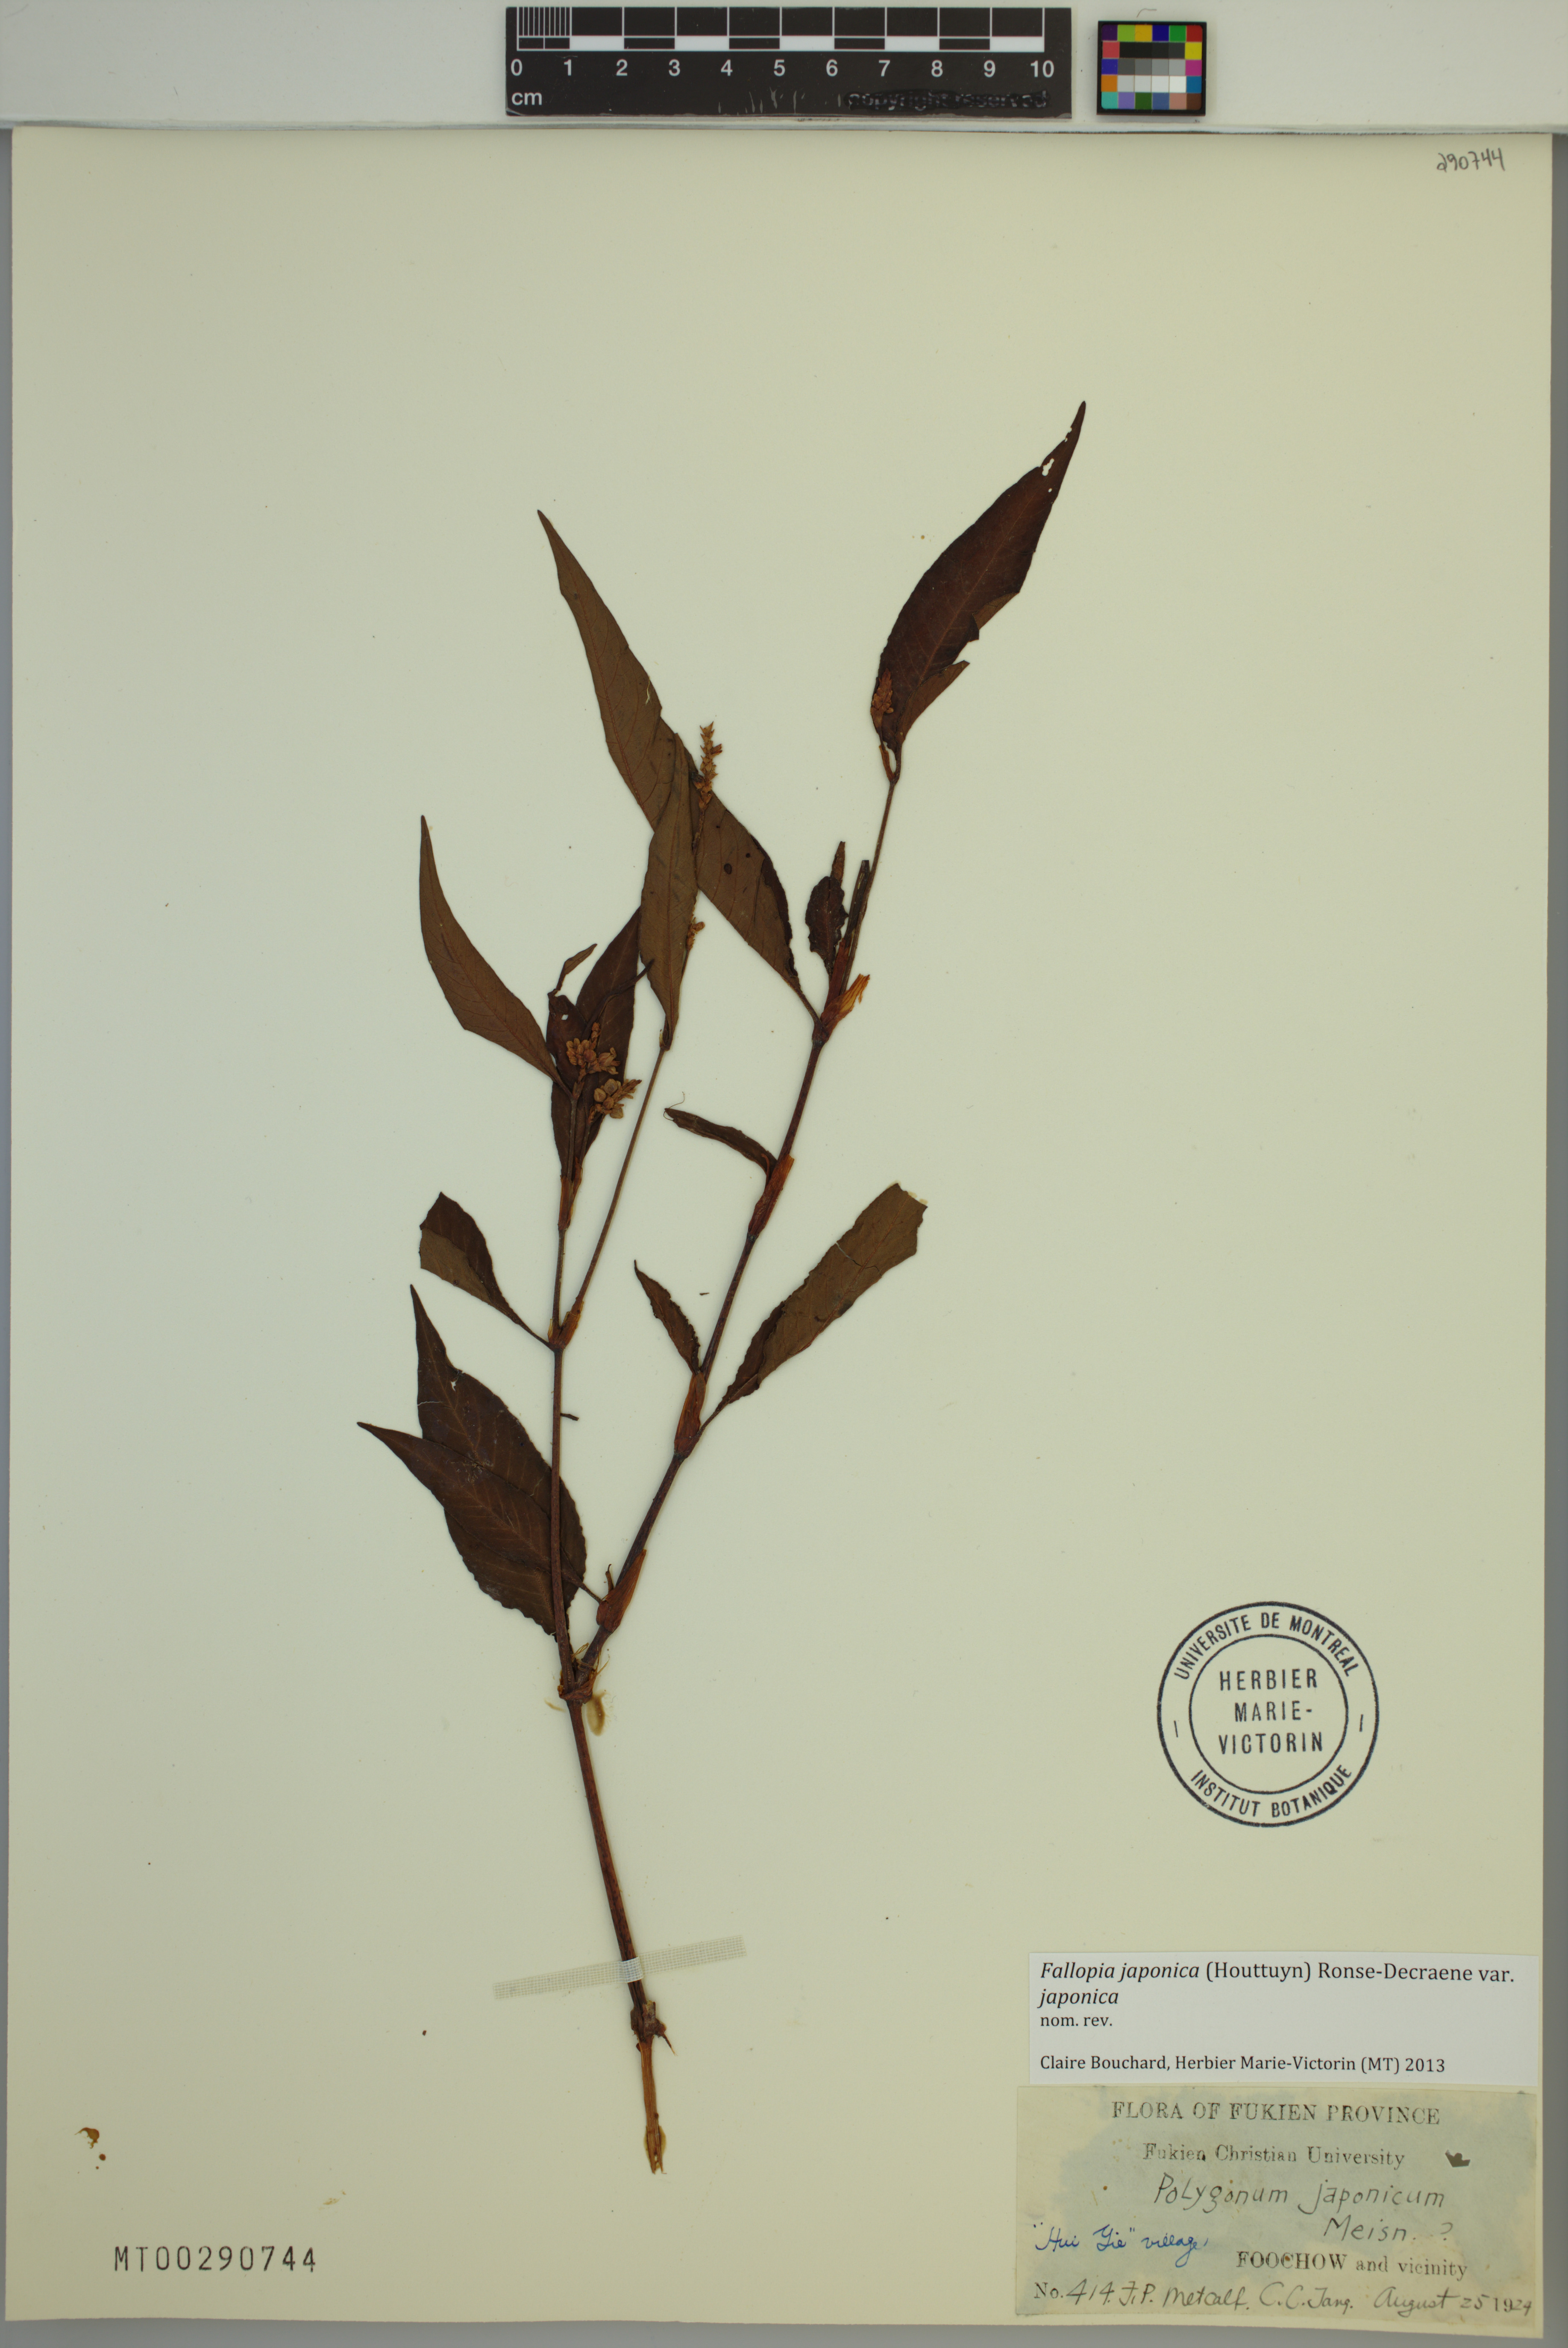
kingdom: Plantae
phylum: Tracheophyta
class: Magnoliopsida
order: Caryophyllales
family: Polygonaceae
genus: Reynoutria
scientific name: Reynoutria japonica
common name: Japanese knotweed
